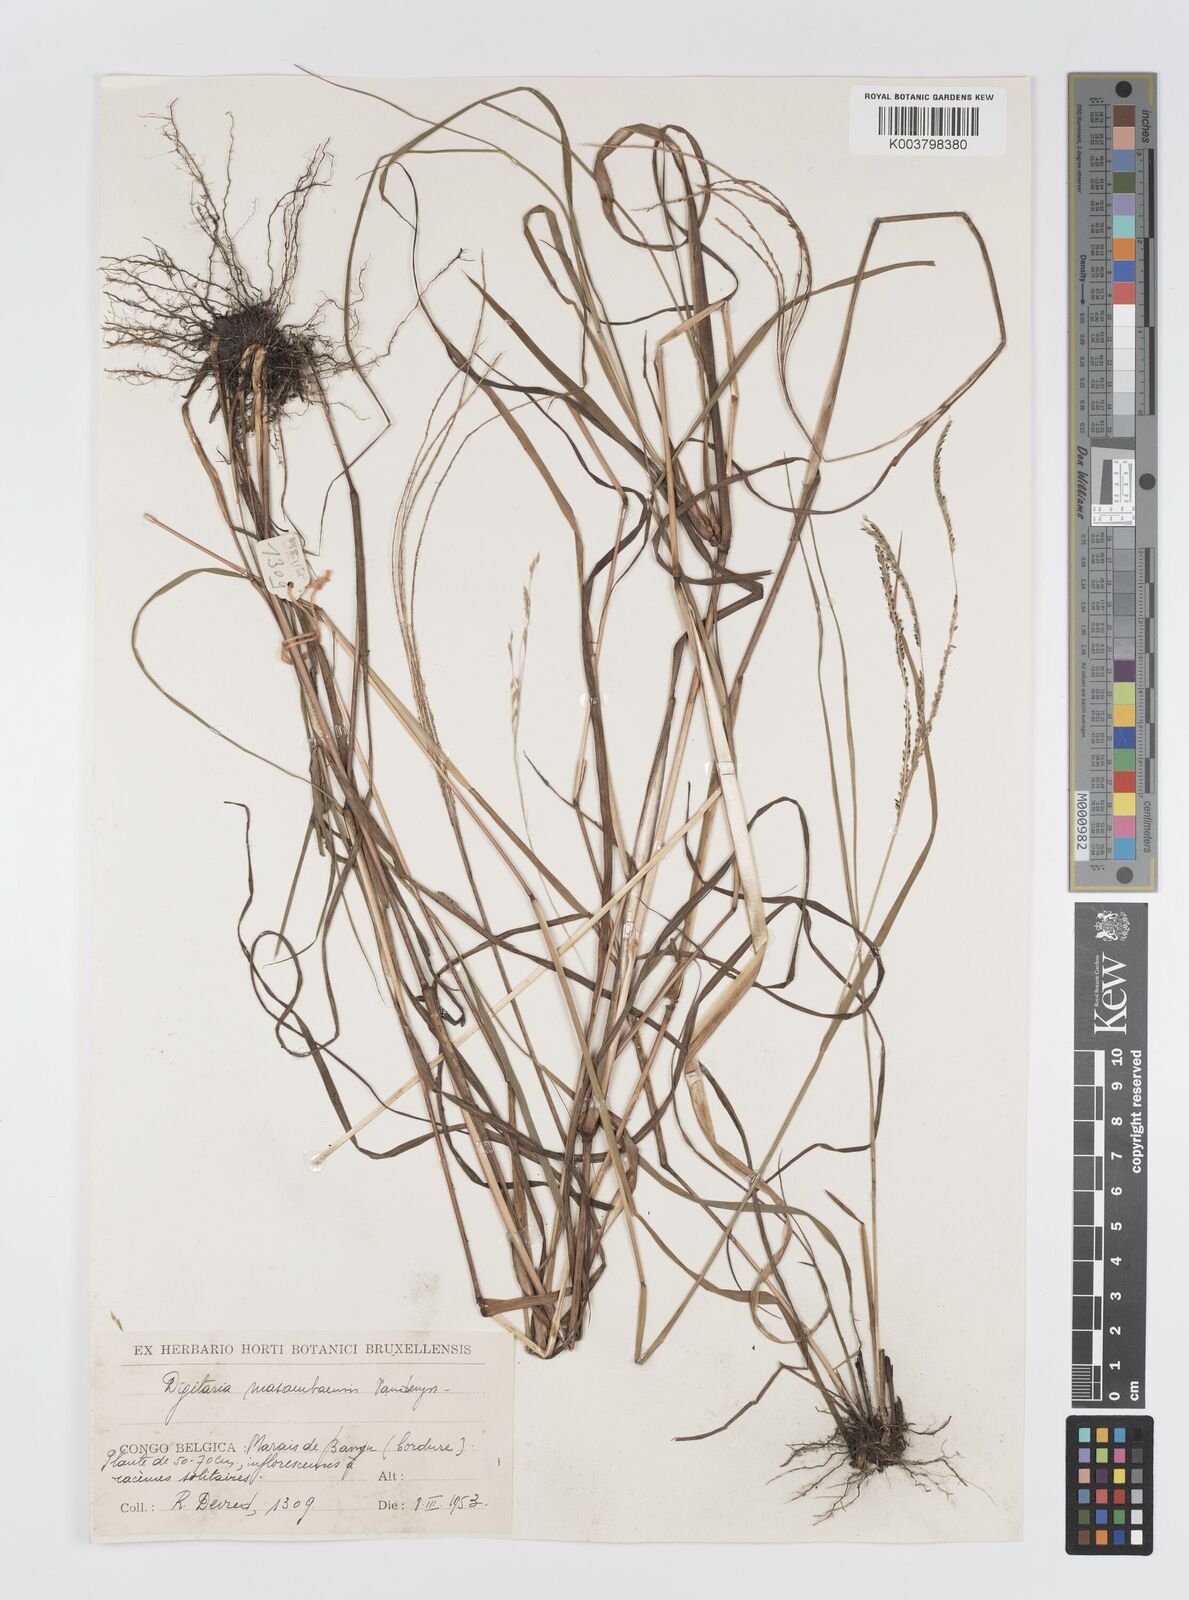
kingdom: Plantae
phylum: Tracheophyta
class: Liliopsida
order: Poales
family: Poaceae
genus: Digitaria
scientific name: Digitaria atrofusca
